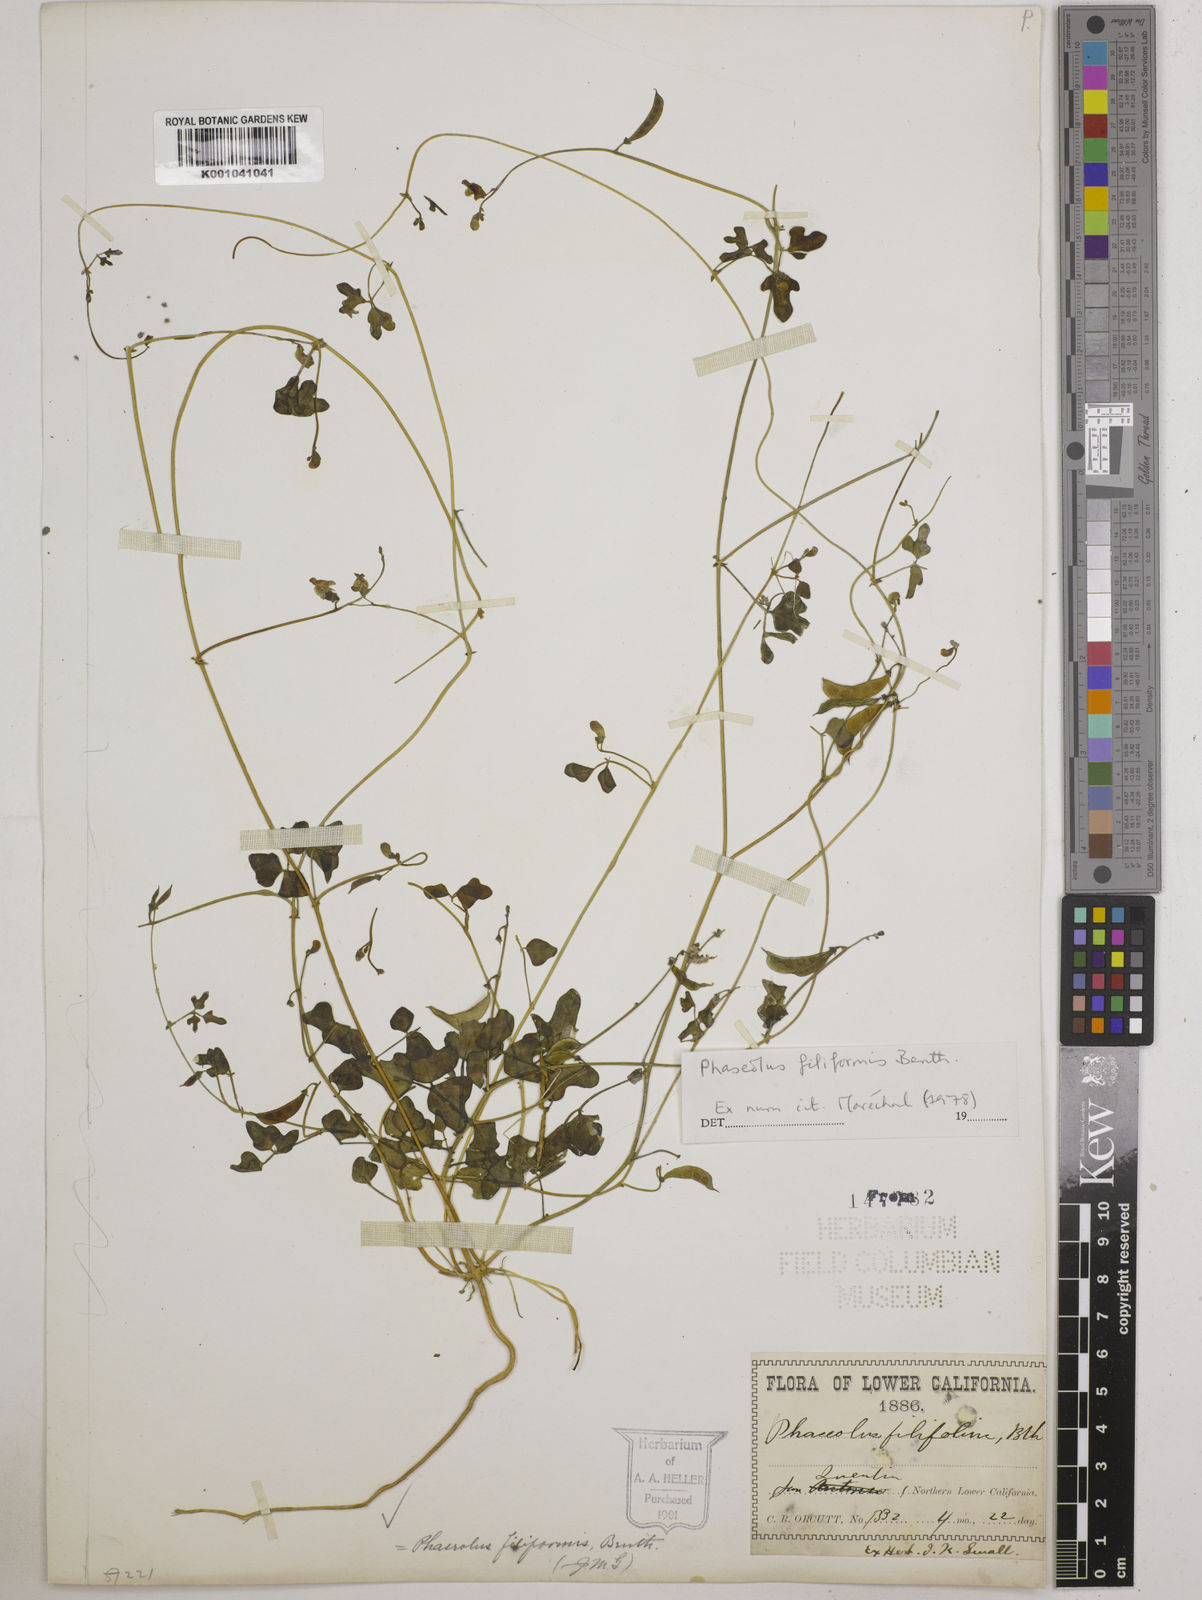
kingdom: Plantae
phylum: Tracheophyta
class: Magnoliopsida
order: Fabales
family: Fabaceae
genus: Phaseolus
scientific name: Phaseolus filiformis
